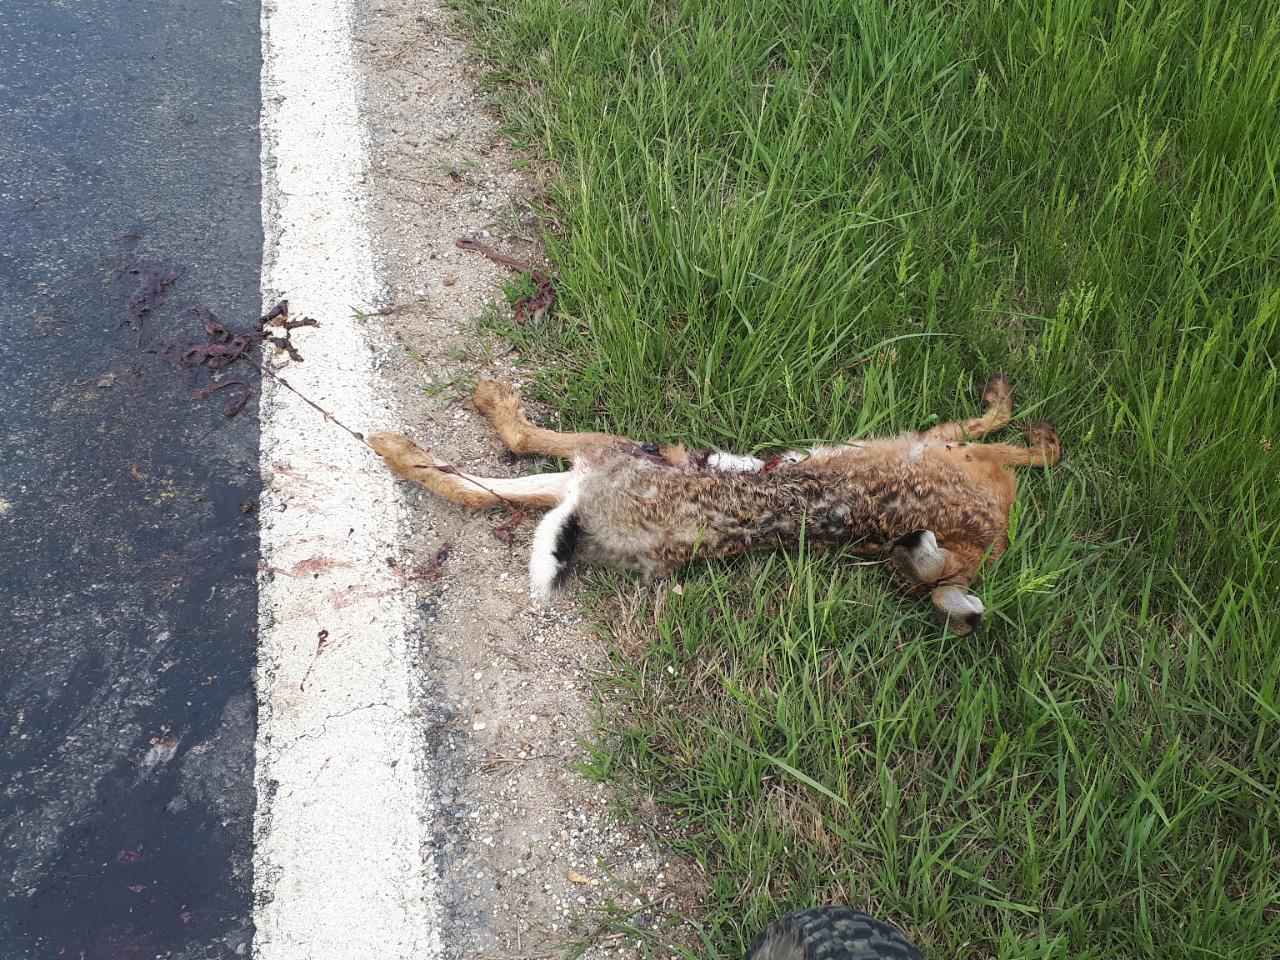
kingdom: Animalia
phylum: Chordata
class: Mammalia
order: Lagomorpha
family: Leporidae
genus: Lepus
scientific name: Lepus europaeus
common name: European hare
